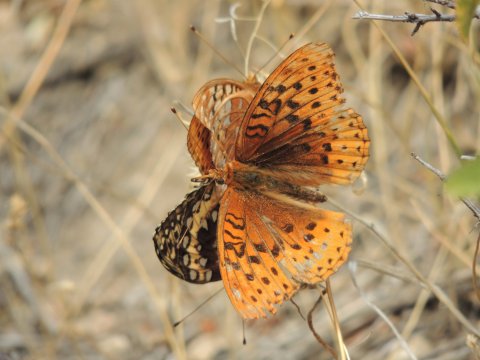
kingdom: Animalia
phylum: Arthropoda
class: Insecta
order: Lepidoptera
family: Nymphalidae
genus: Speyeria
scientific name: Speyeria cybele
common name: Great Spangled Fritillary
